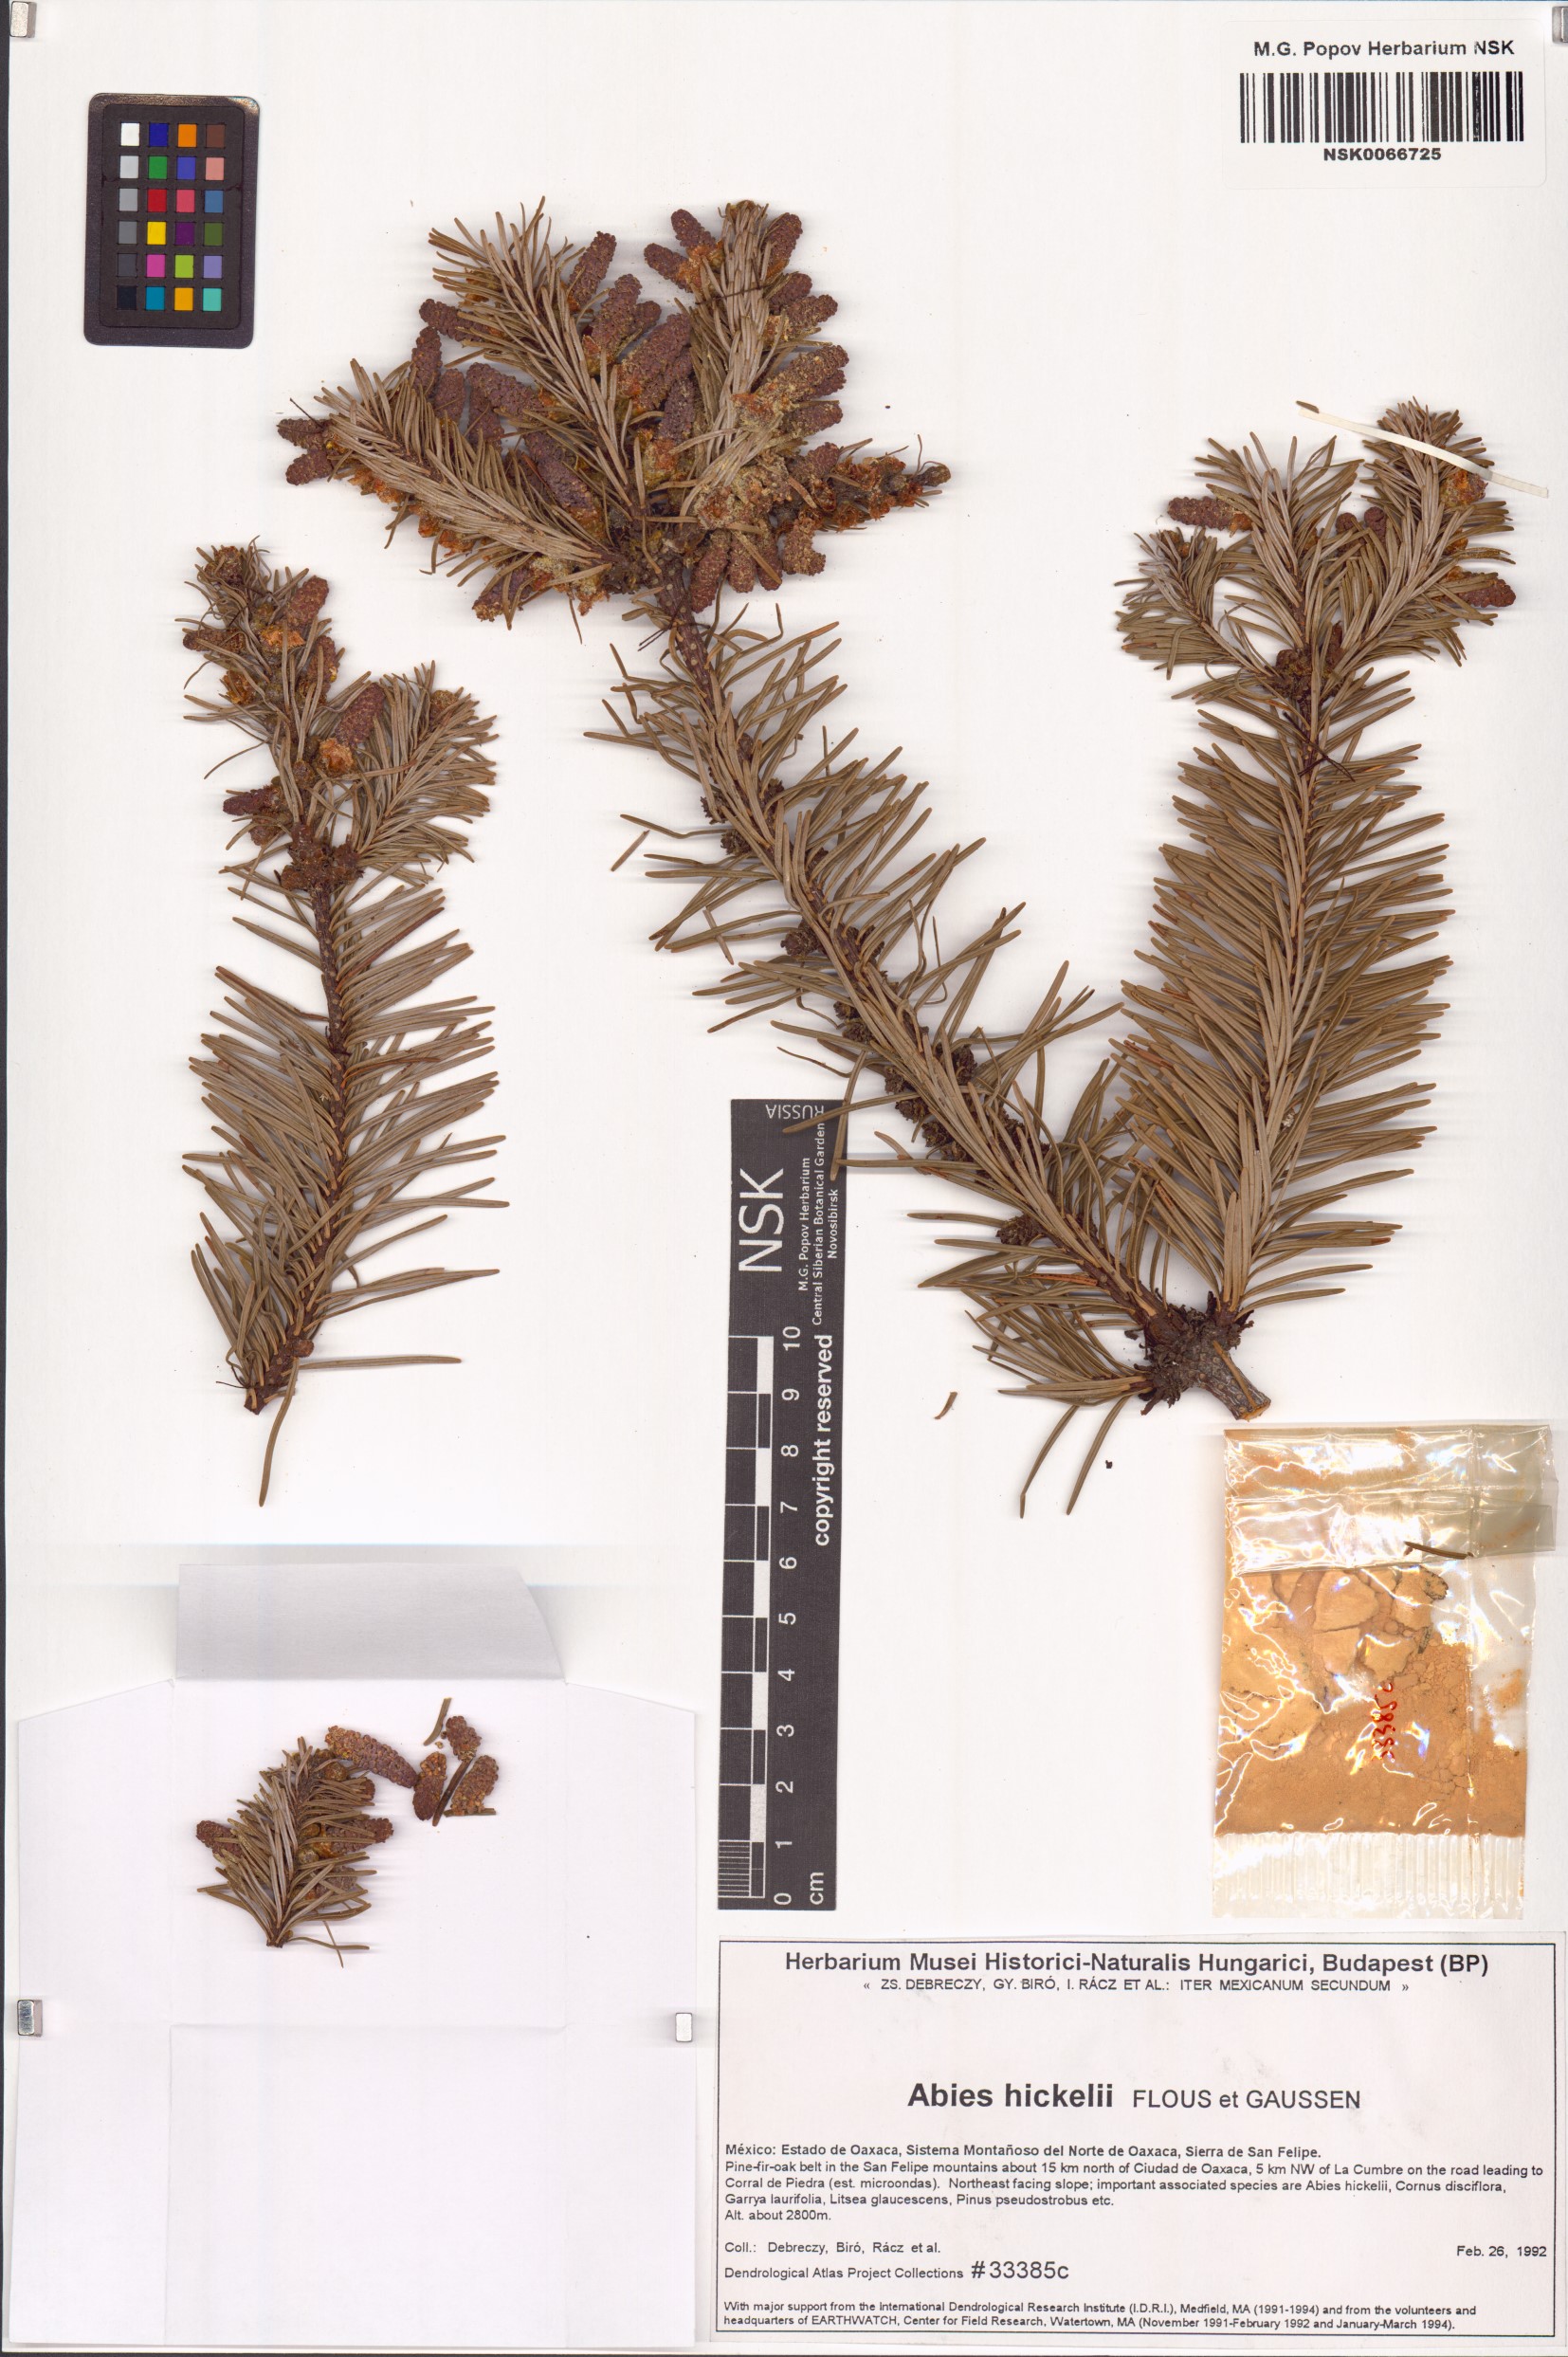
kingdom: Plantae
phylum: Tracheophyta
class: Pinopsida
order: Pinales
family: Pinaceae
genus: Abies
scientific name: Abies hickelii
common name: Hickel's fir
